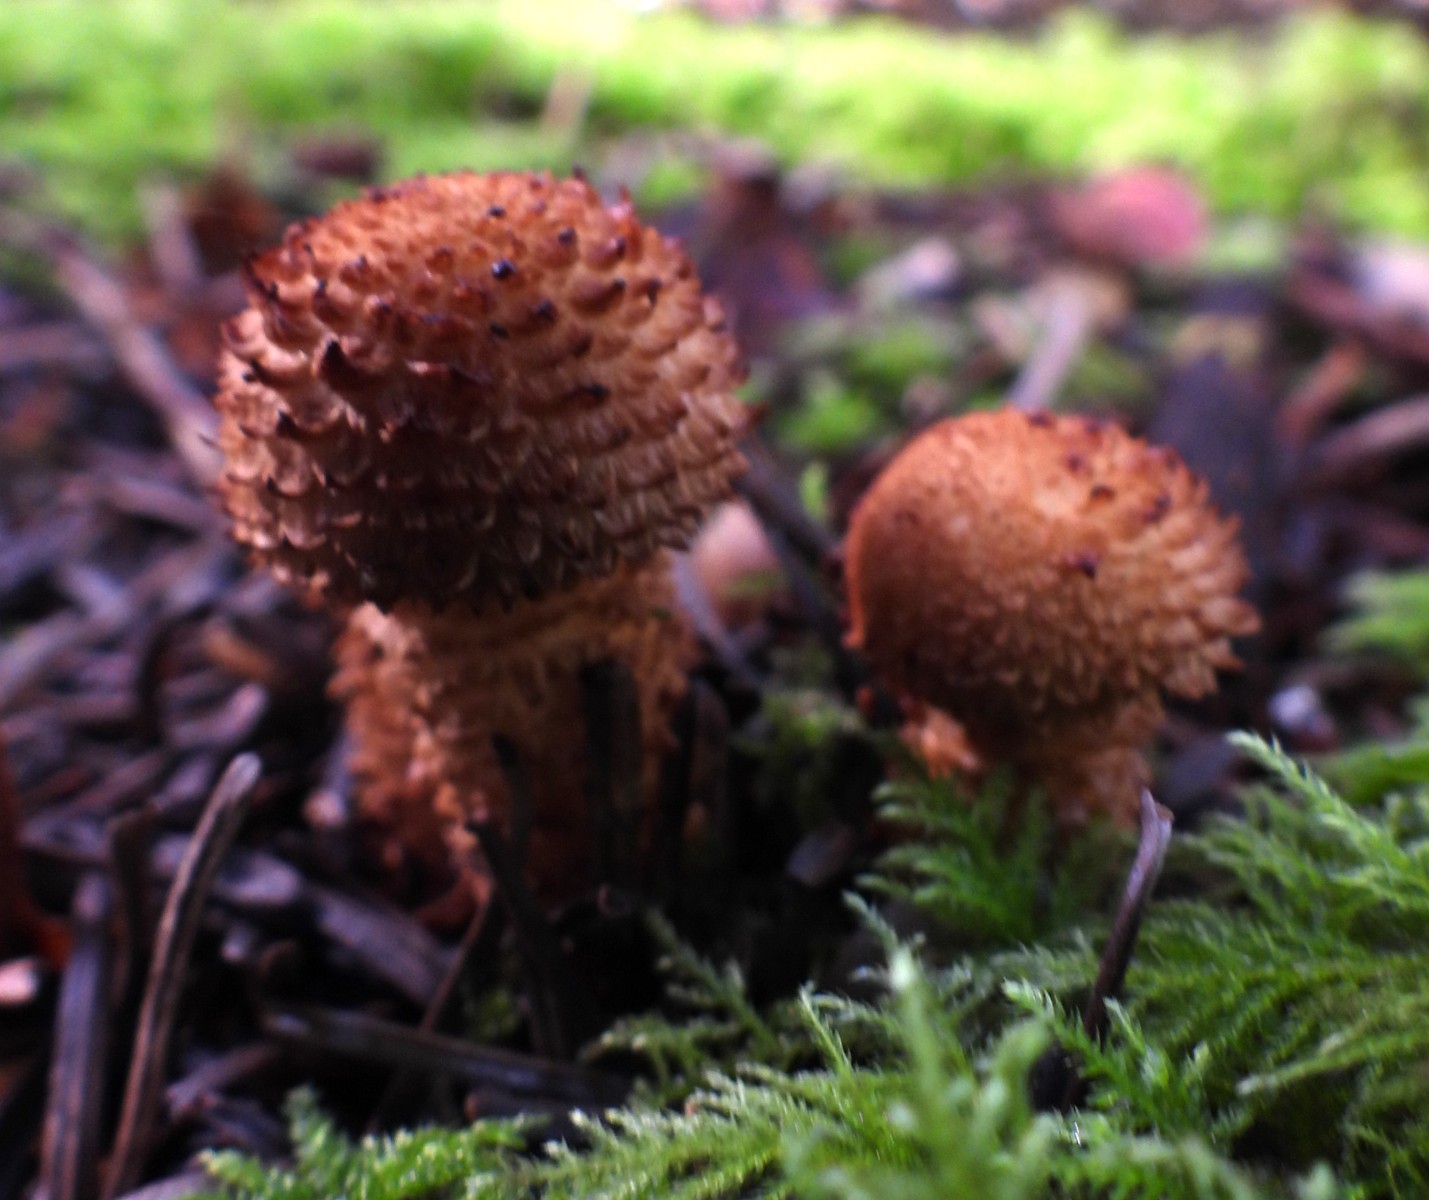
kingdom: Fungi
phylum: Basidiomycota
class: Agaricomycetes
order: Agaricales
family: Strophariaceae
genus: Pholiota
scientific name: Pholiota squarrosa
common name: krumskællet skælhat
